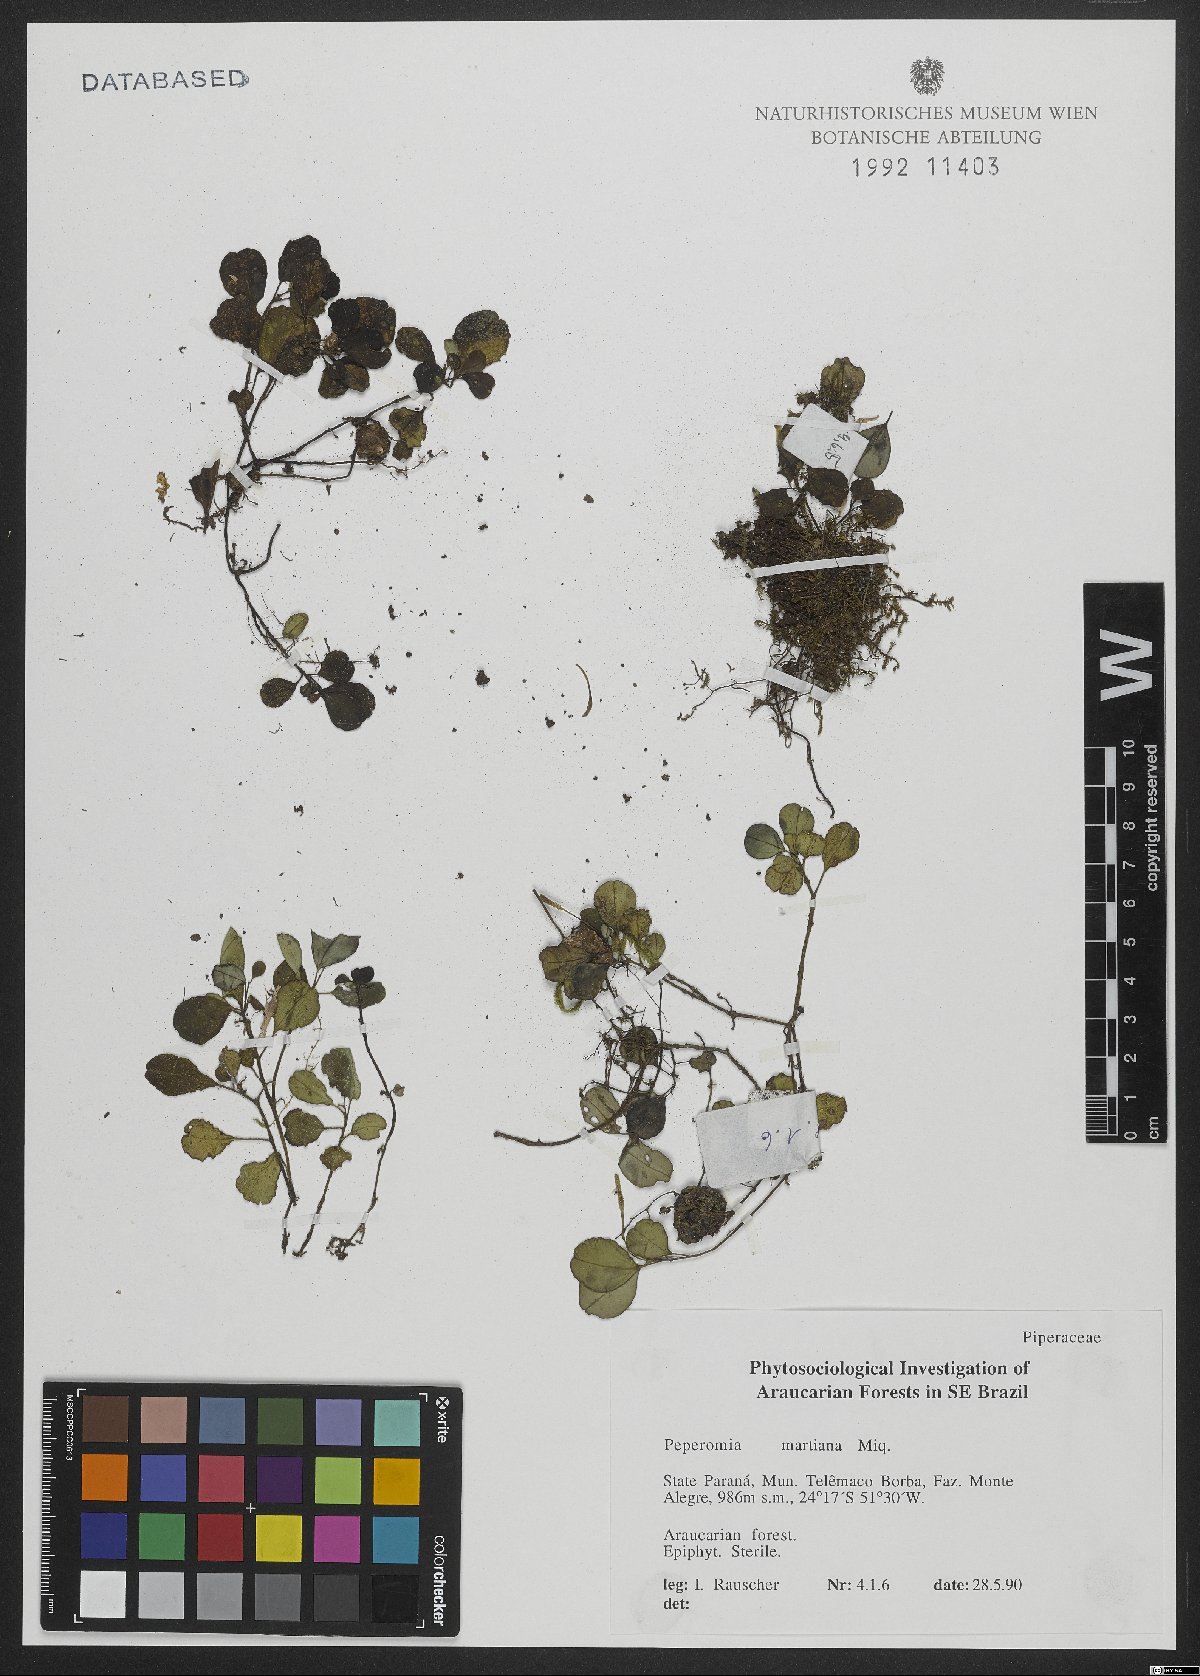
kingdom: Plantae
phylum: Tracheophyta
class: Magnoliopsida
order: Piperales
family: Piperaceae
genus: Peperomia
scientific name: Peperomia martiana
